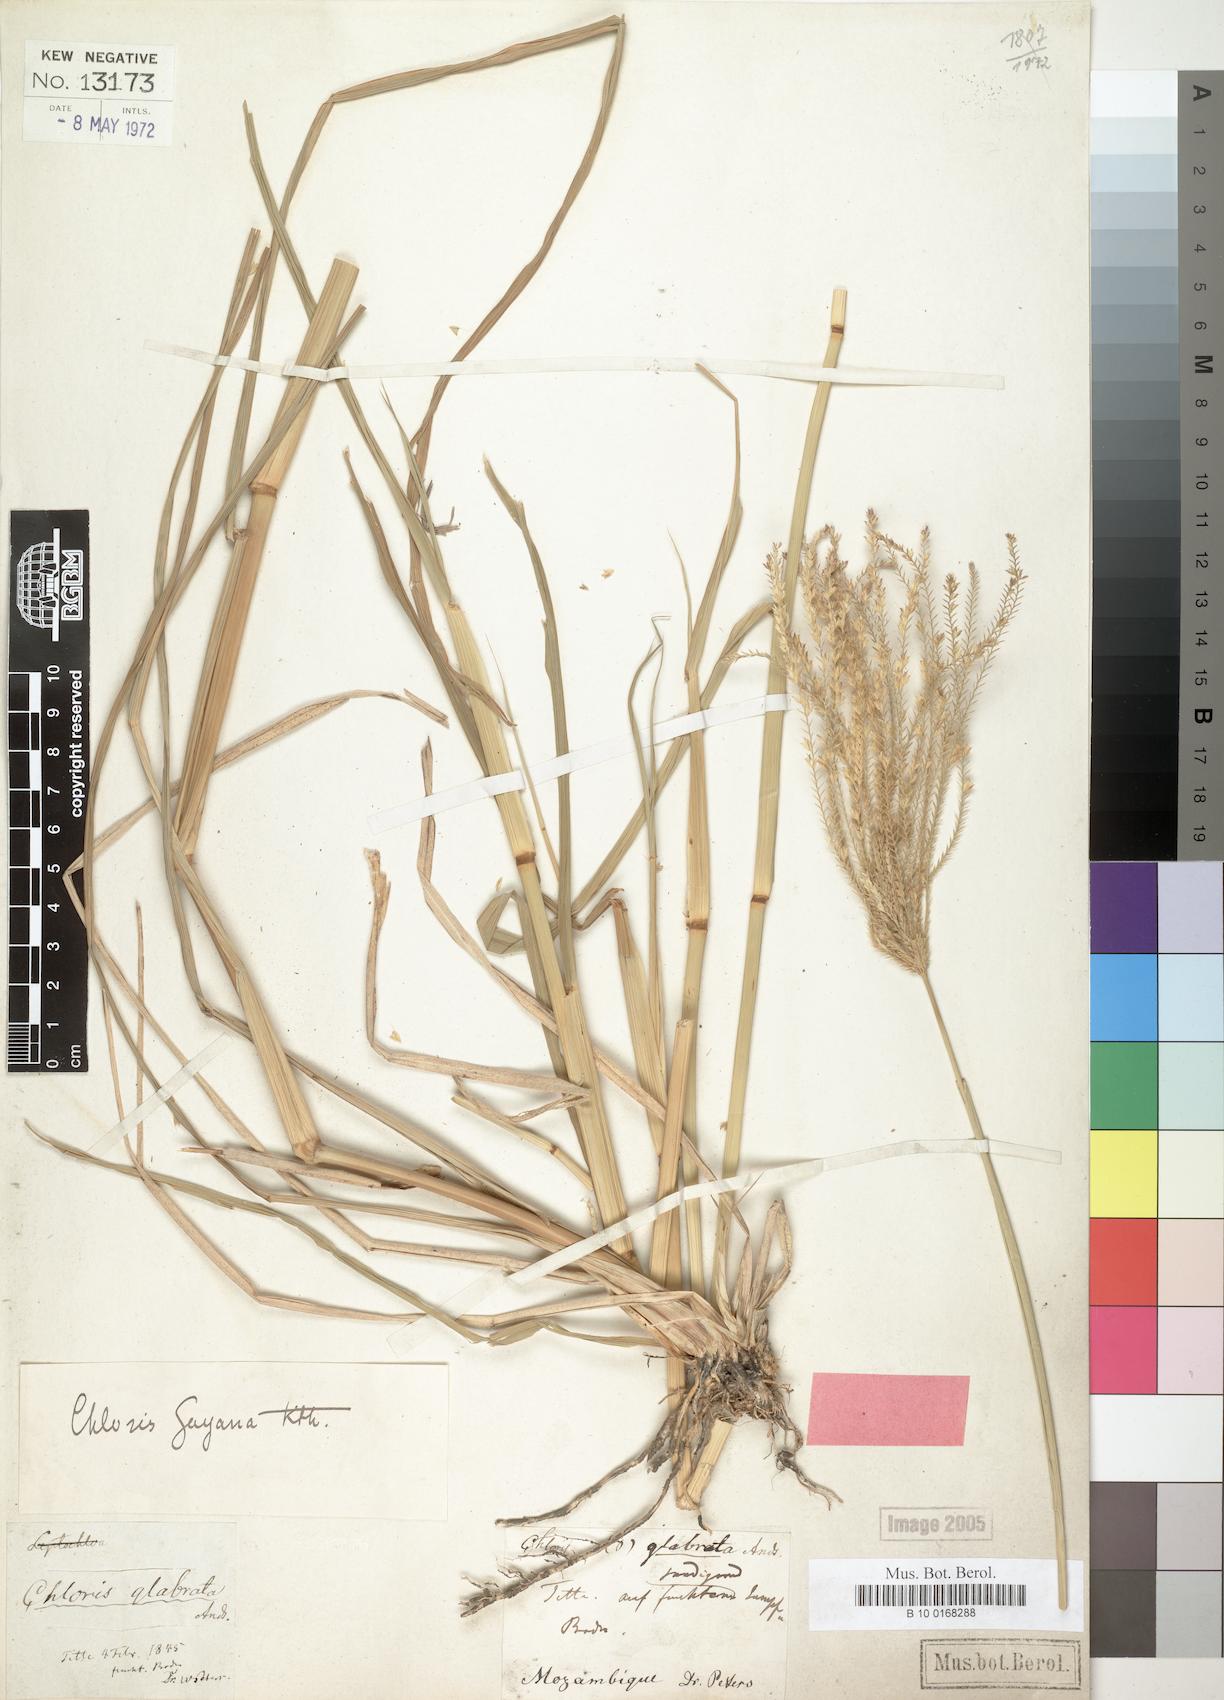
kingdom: Plantae
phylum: Tracheophyta
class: Liliopsida
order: Poales
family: Poaceae
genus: Chloris
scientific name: Chloris gayana
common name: Rhodes grass
